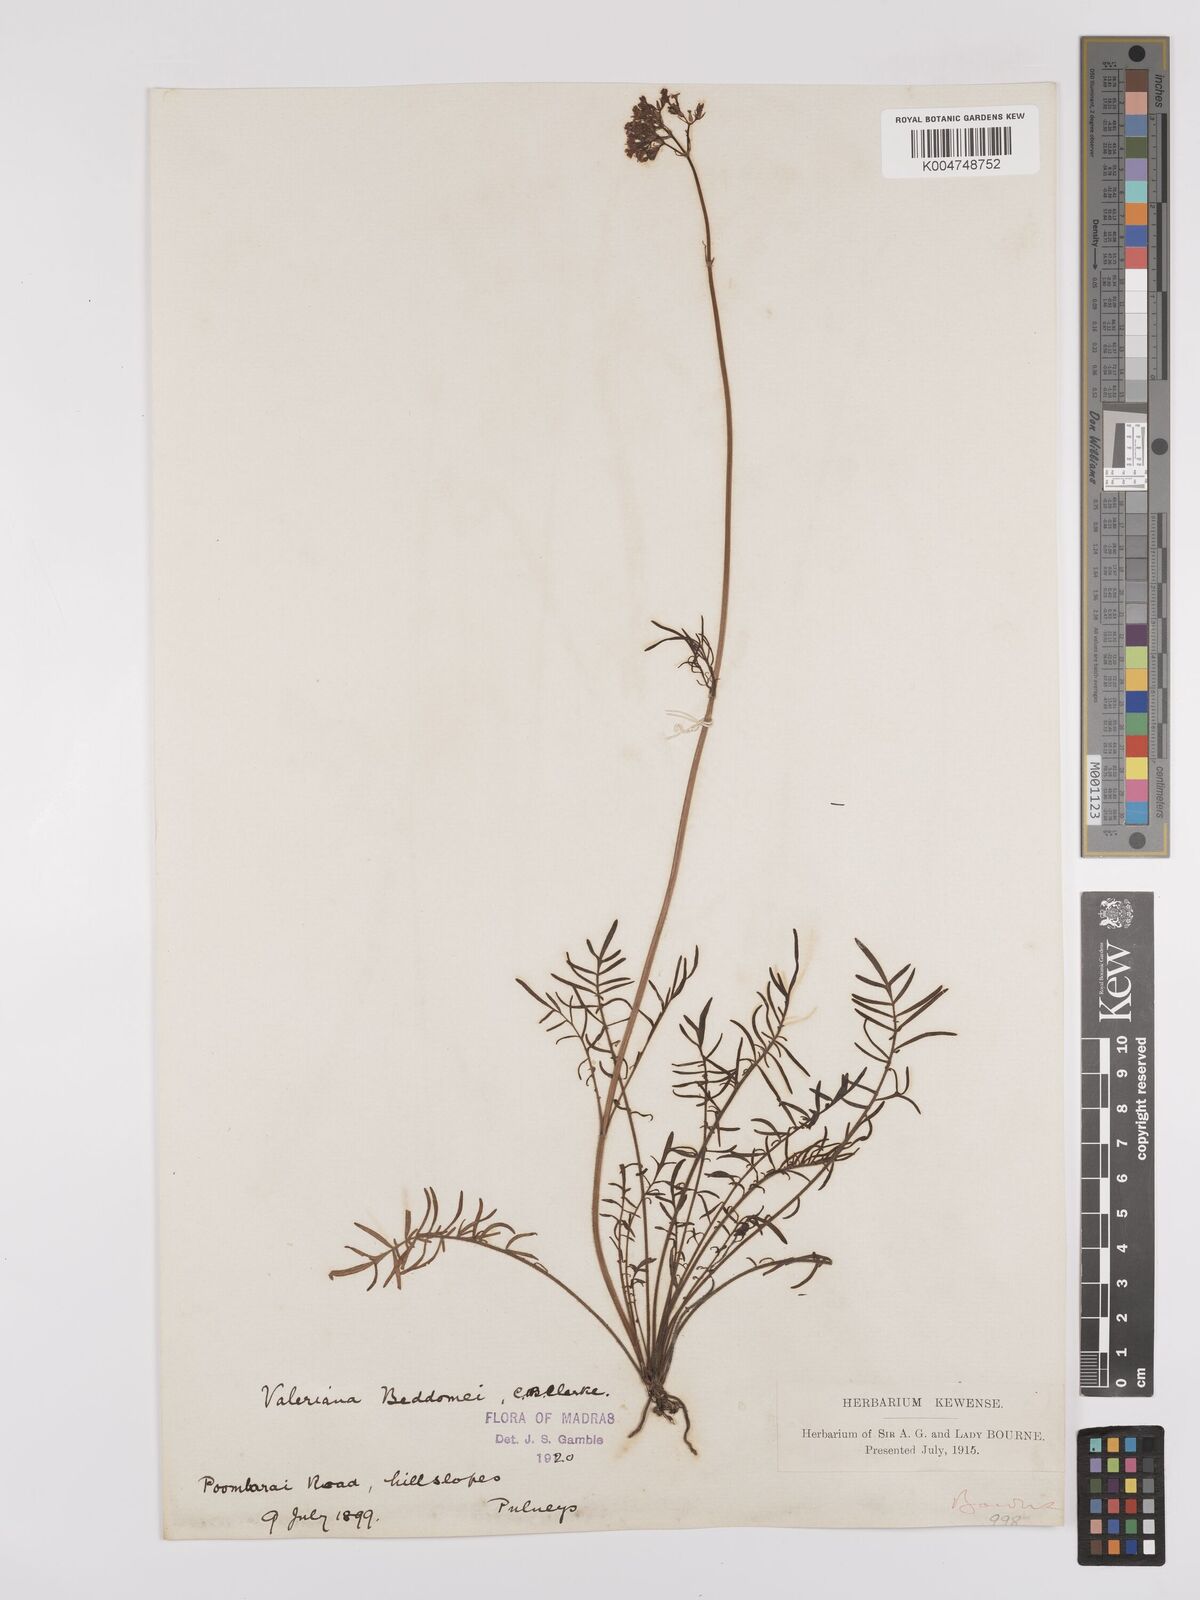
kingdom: Plantae
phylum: Tracheophyta
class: Magnoliopsida
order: Dipsacales
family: Caprifoliaceae
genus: Valeriana
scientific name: Valeriana beddomei
